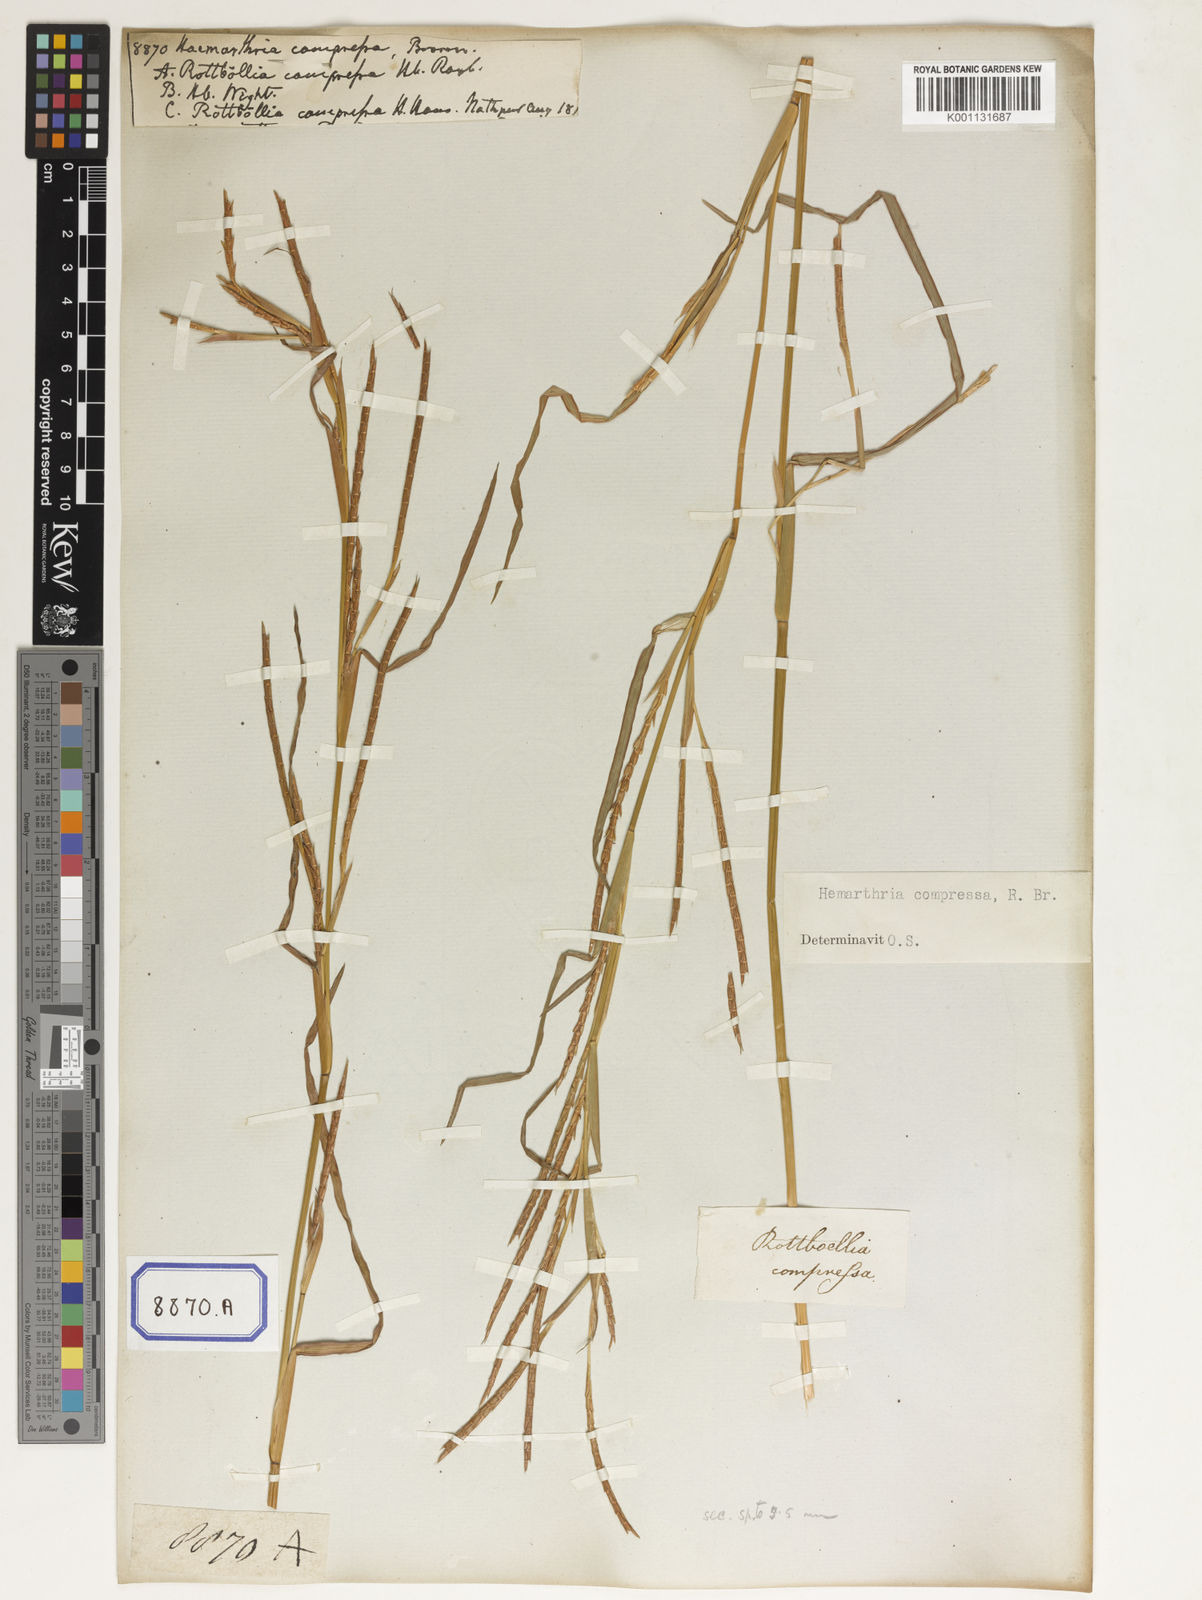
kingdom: Plantae
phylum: Tracheophyta
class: Liliopsida
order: Poales
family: Poaceae
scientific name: Poaceae
